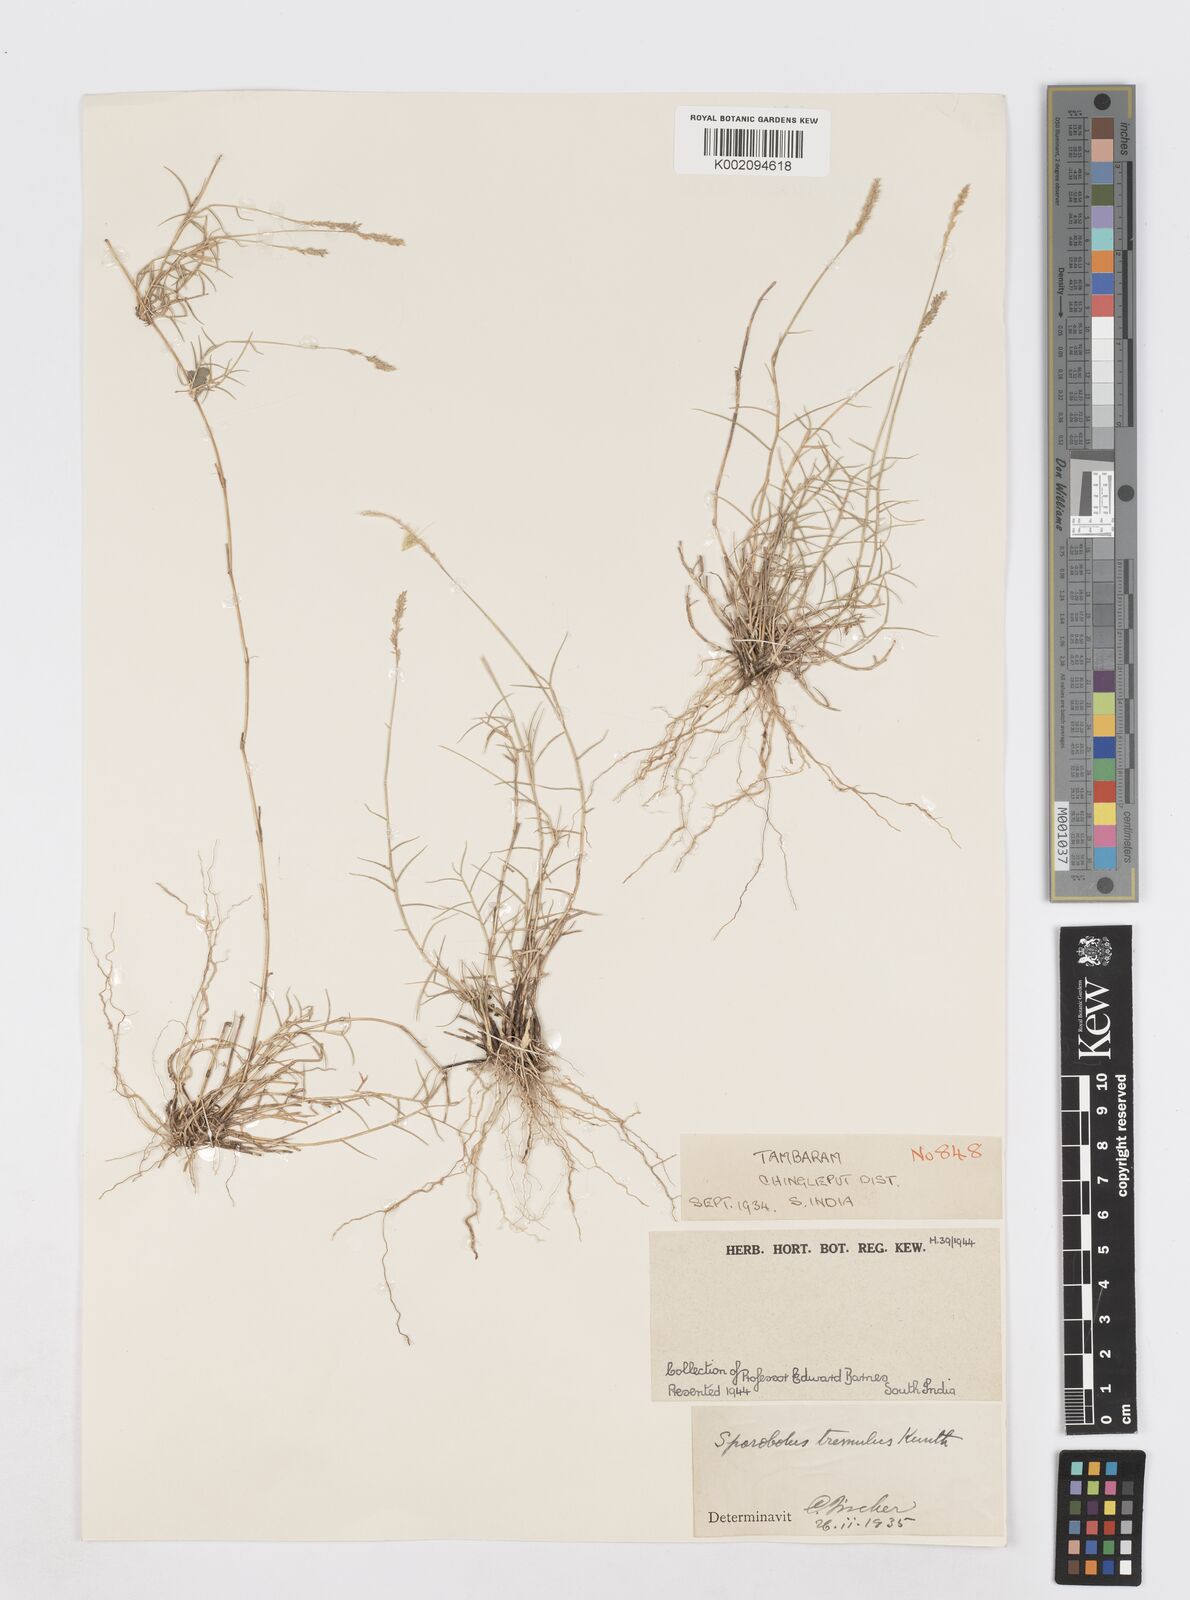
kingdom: Plantae
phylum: Tracheophyta
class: Liliopsida
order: Poales
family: Poaceae
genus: Sporobolus
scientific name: Sporobolus virginicus
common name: Beach dropseed
